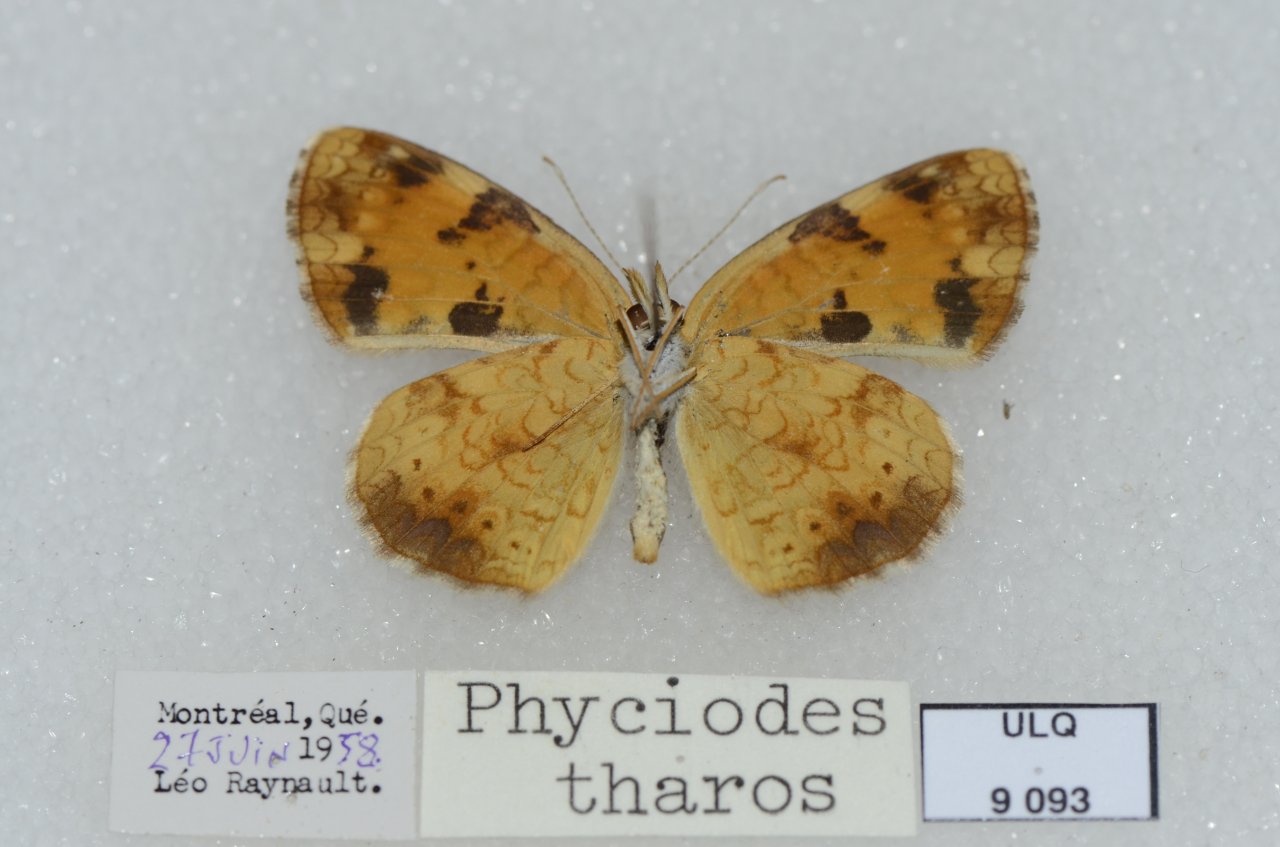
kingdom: Animalia
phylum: Arthropoda
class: Insecta
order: Lepidoptera
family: Nymphalidae
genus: Phyciodes
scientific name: Phyciodes tharos
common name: Northern Crescent
